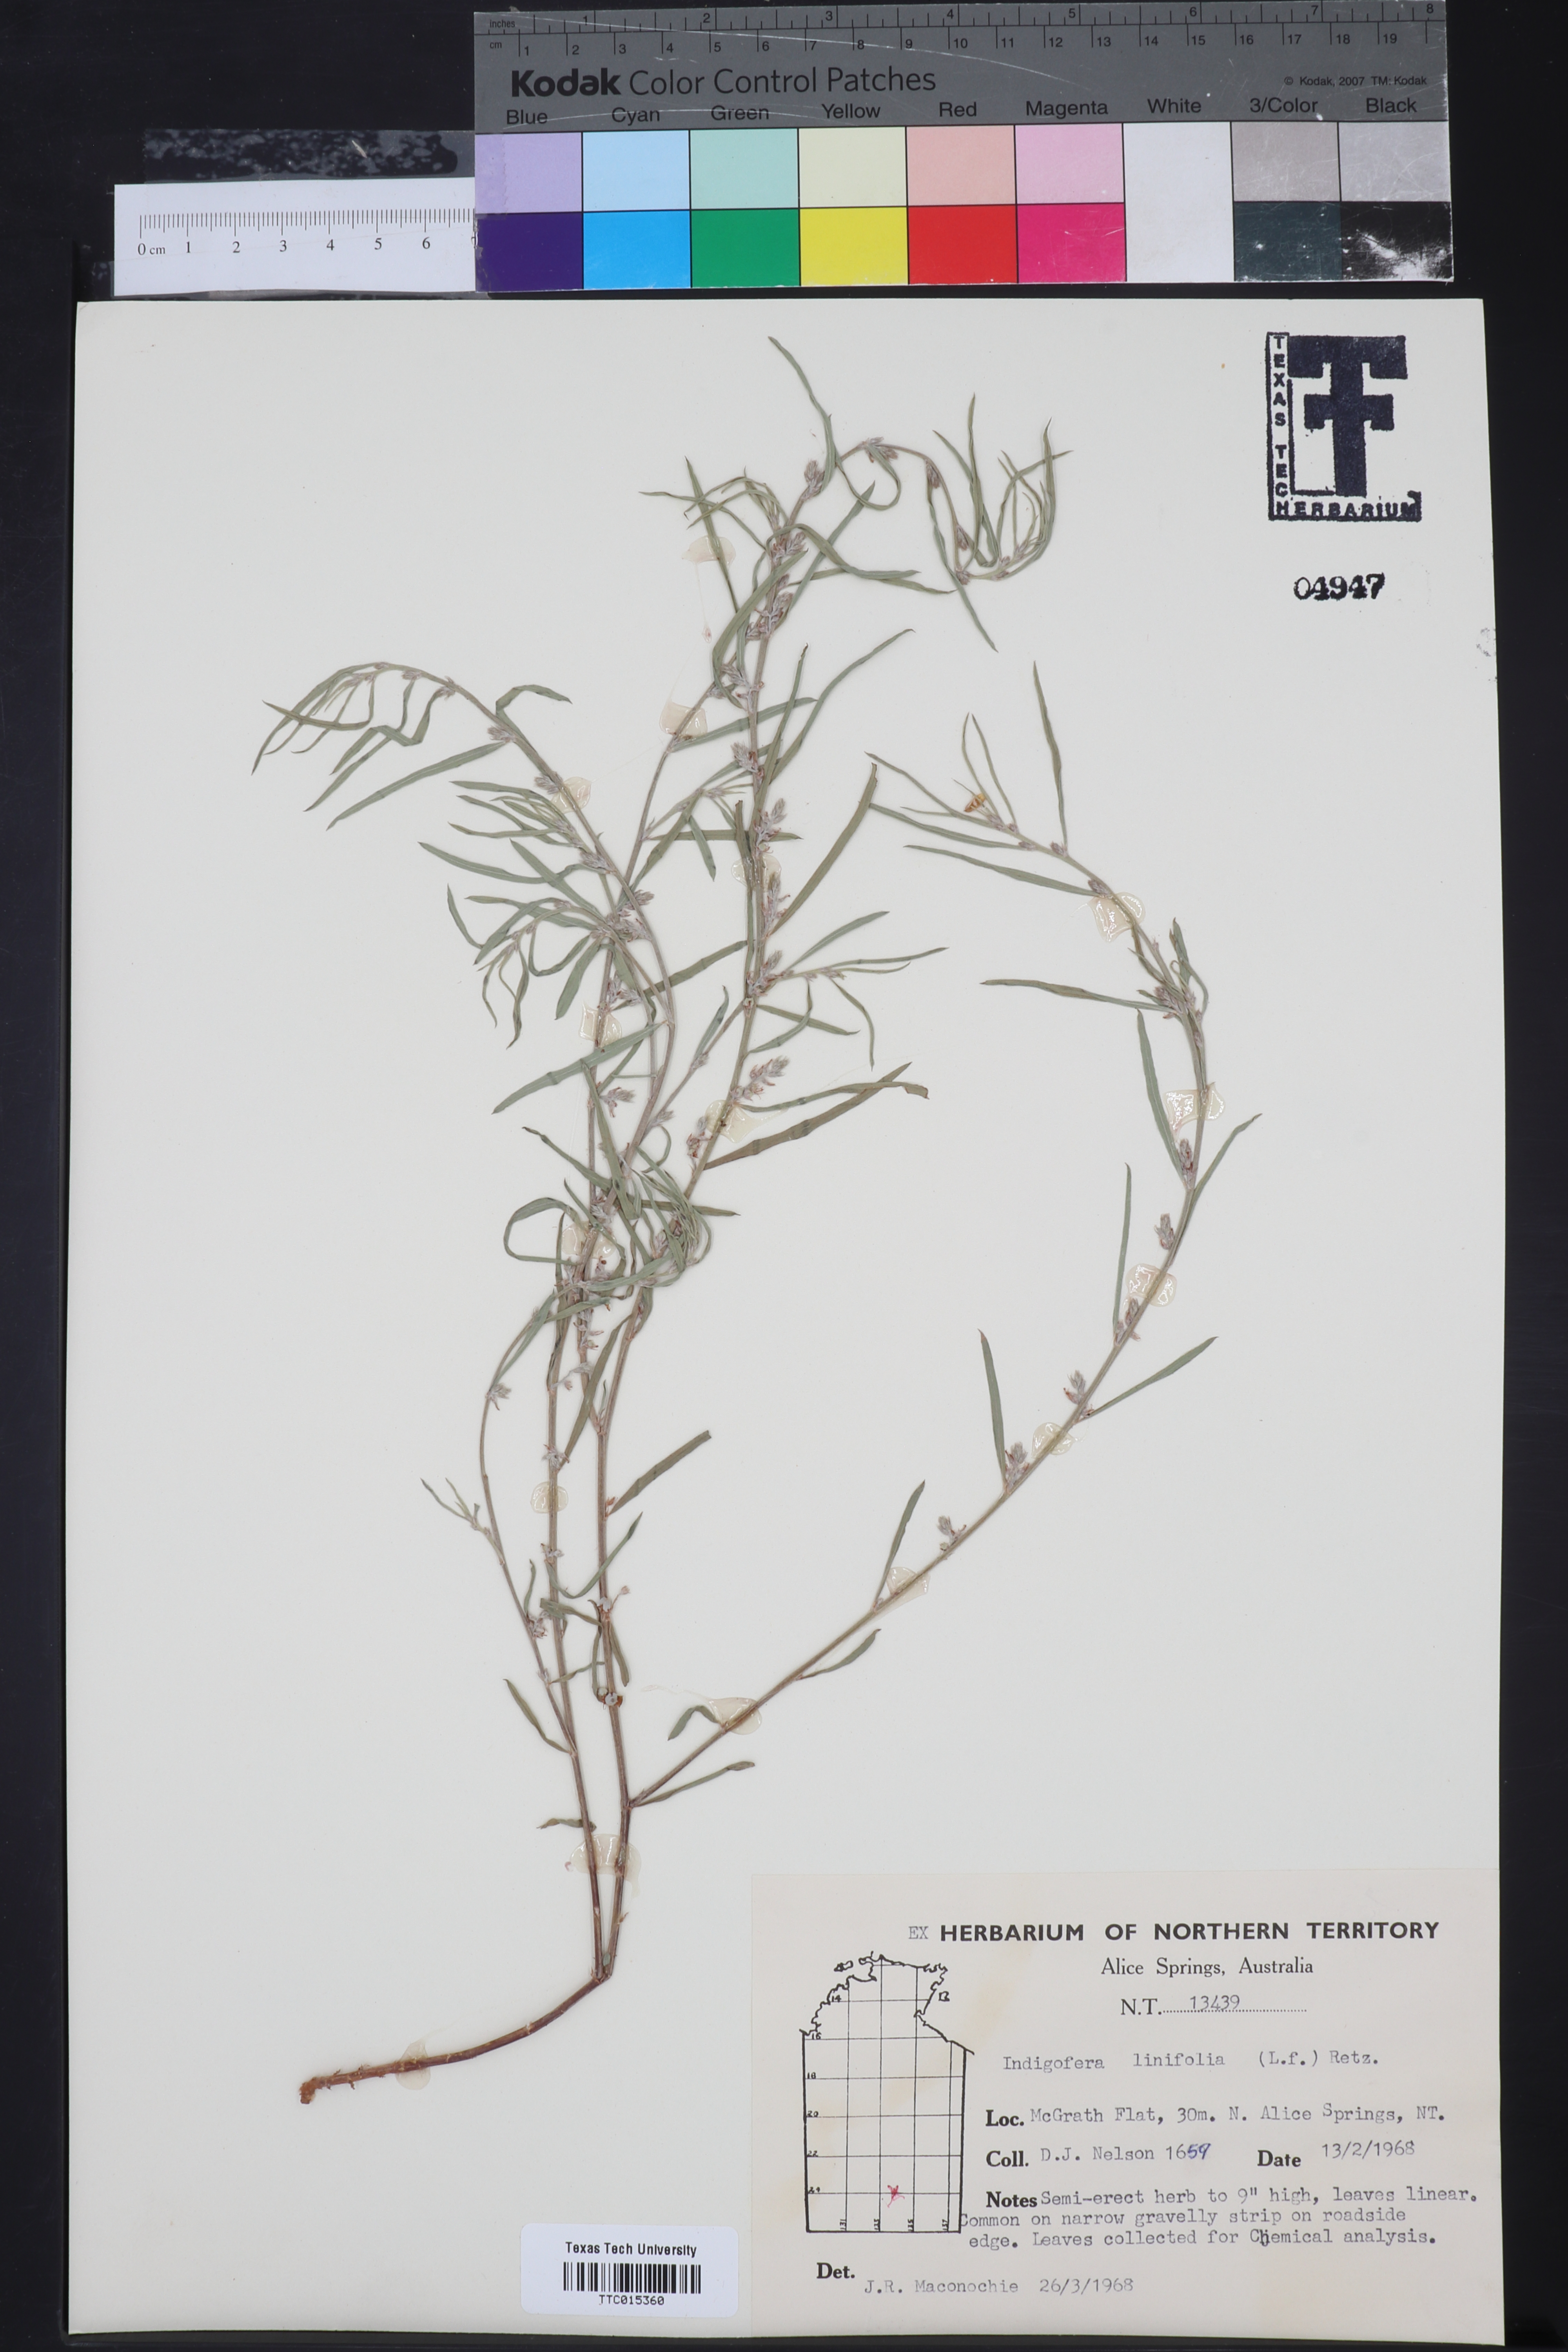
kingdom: Plantae
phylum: Tracheophyta
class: Magnoliopsida
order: Fabales
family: Fabaceae
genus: Indigofera
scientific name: Indigofera linifolia
